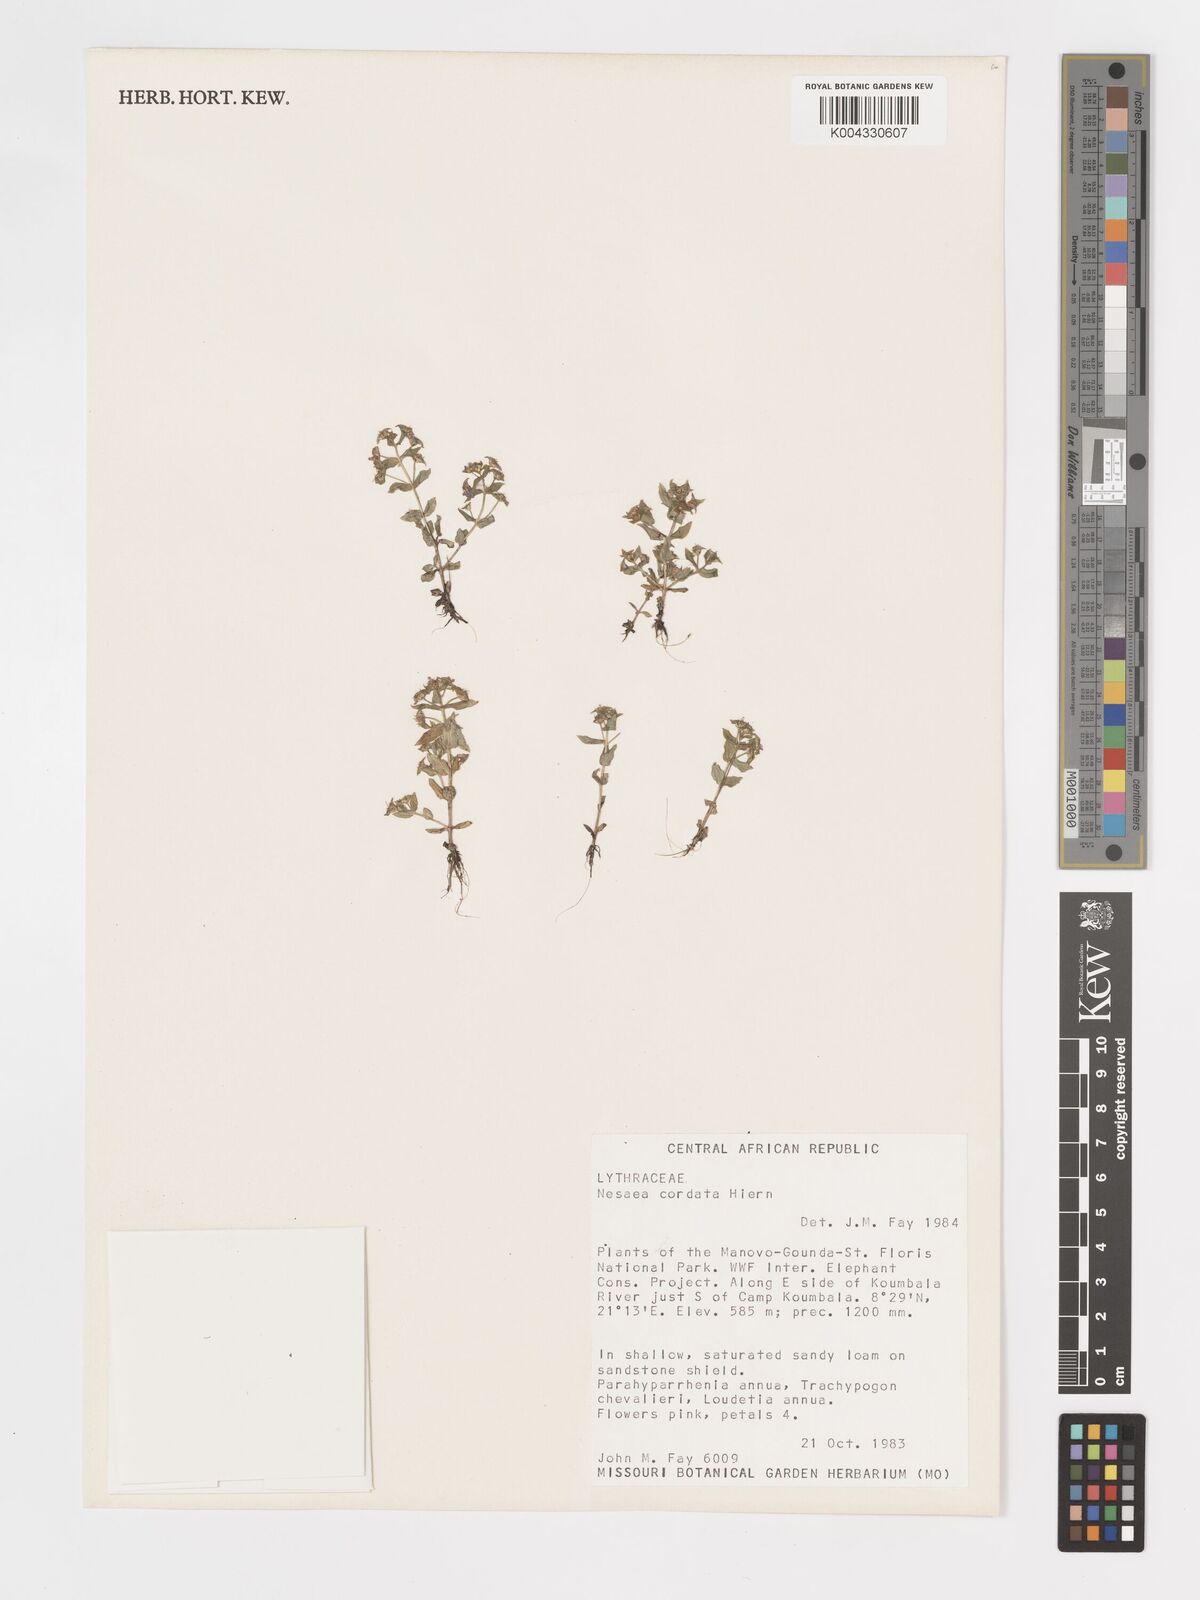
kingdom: Plantae
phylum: Tracheophyta
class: Magnoliopsida
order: Myrtales
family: Lythraceae
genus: Nesaea
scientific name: Nesaea
